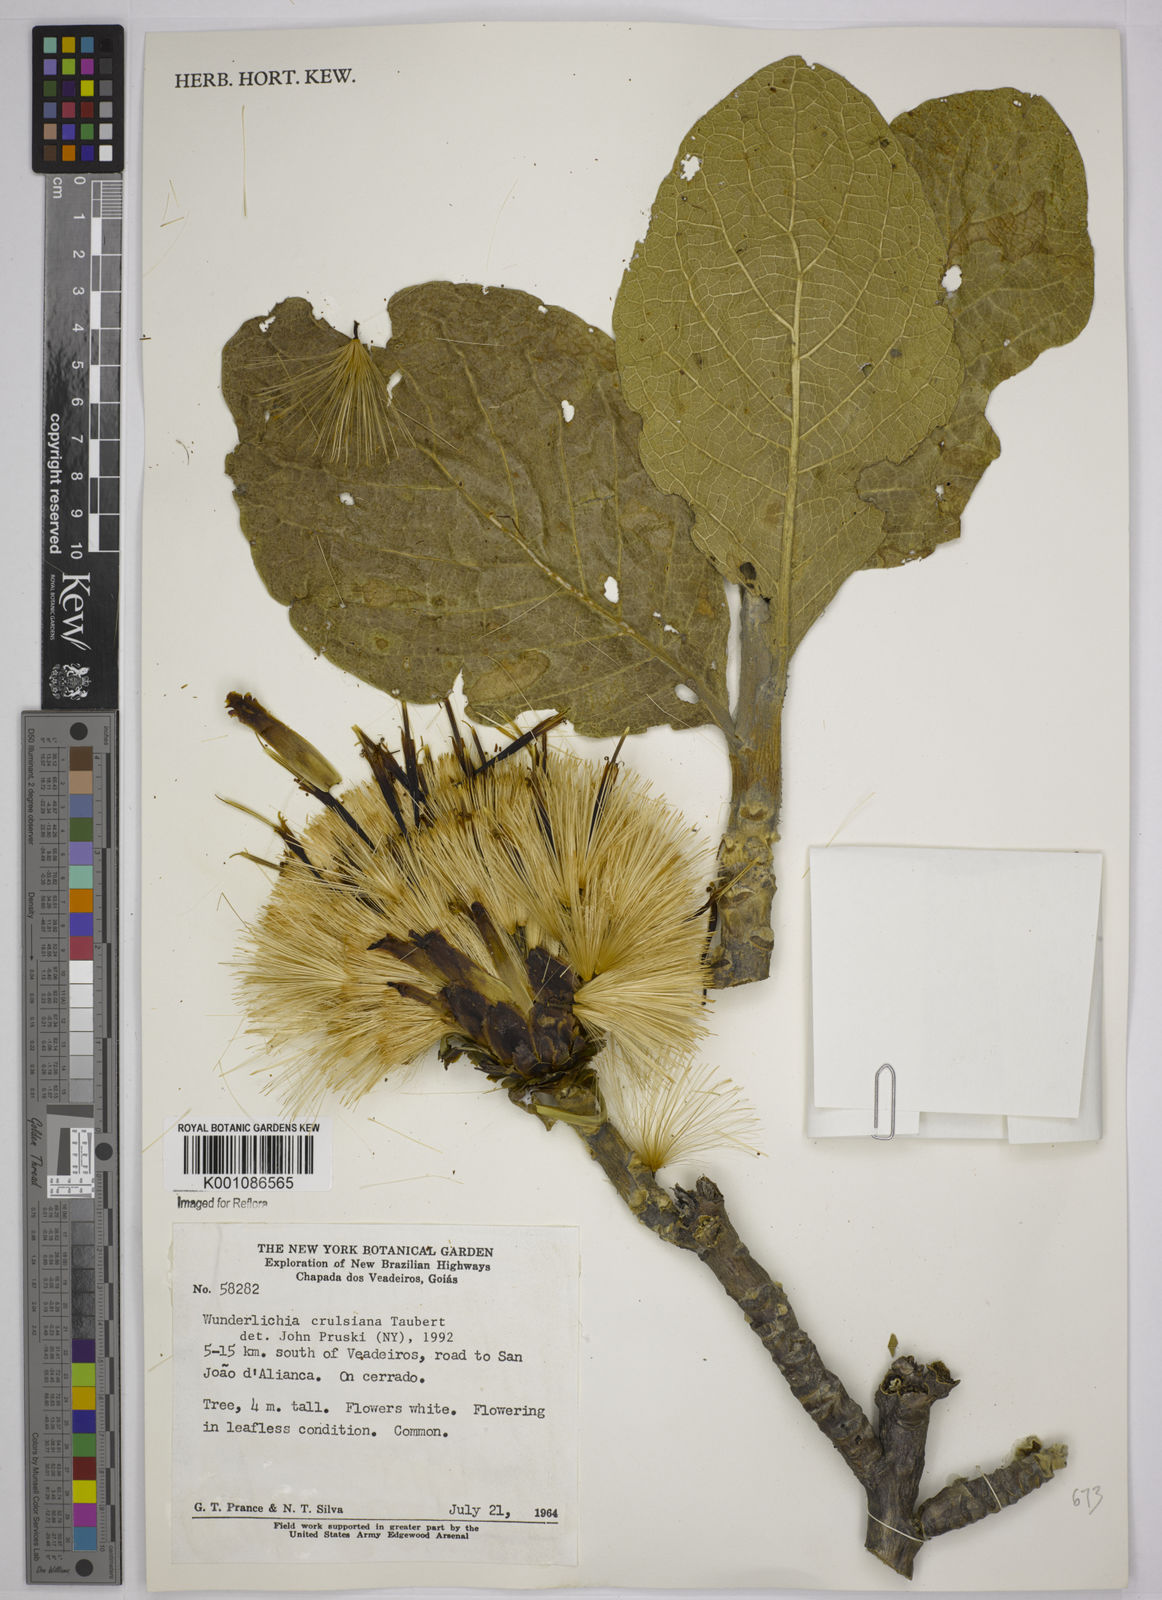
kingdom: Plantae
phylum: Tracheophyta
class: Magnoliopsida
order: Asterales
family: Asteraceae
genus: Wunderlichia
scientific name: Wunderlichia
